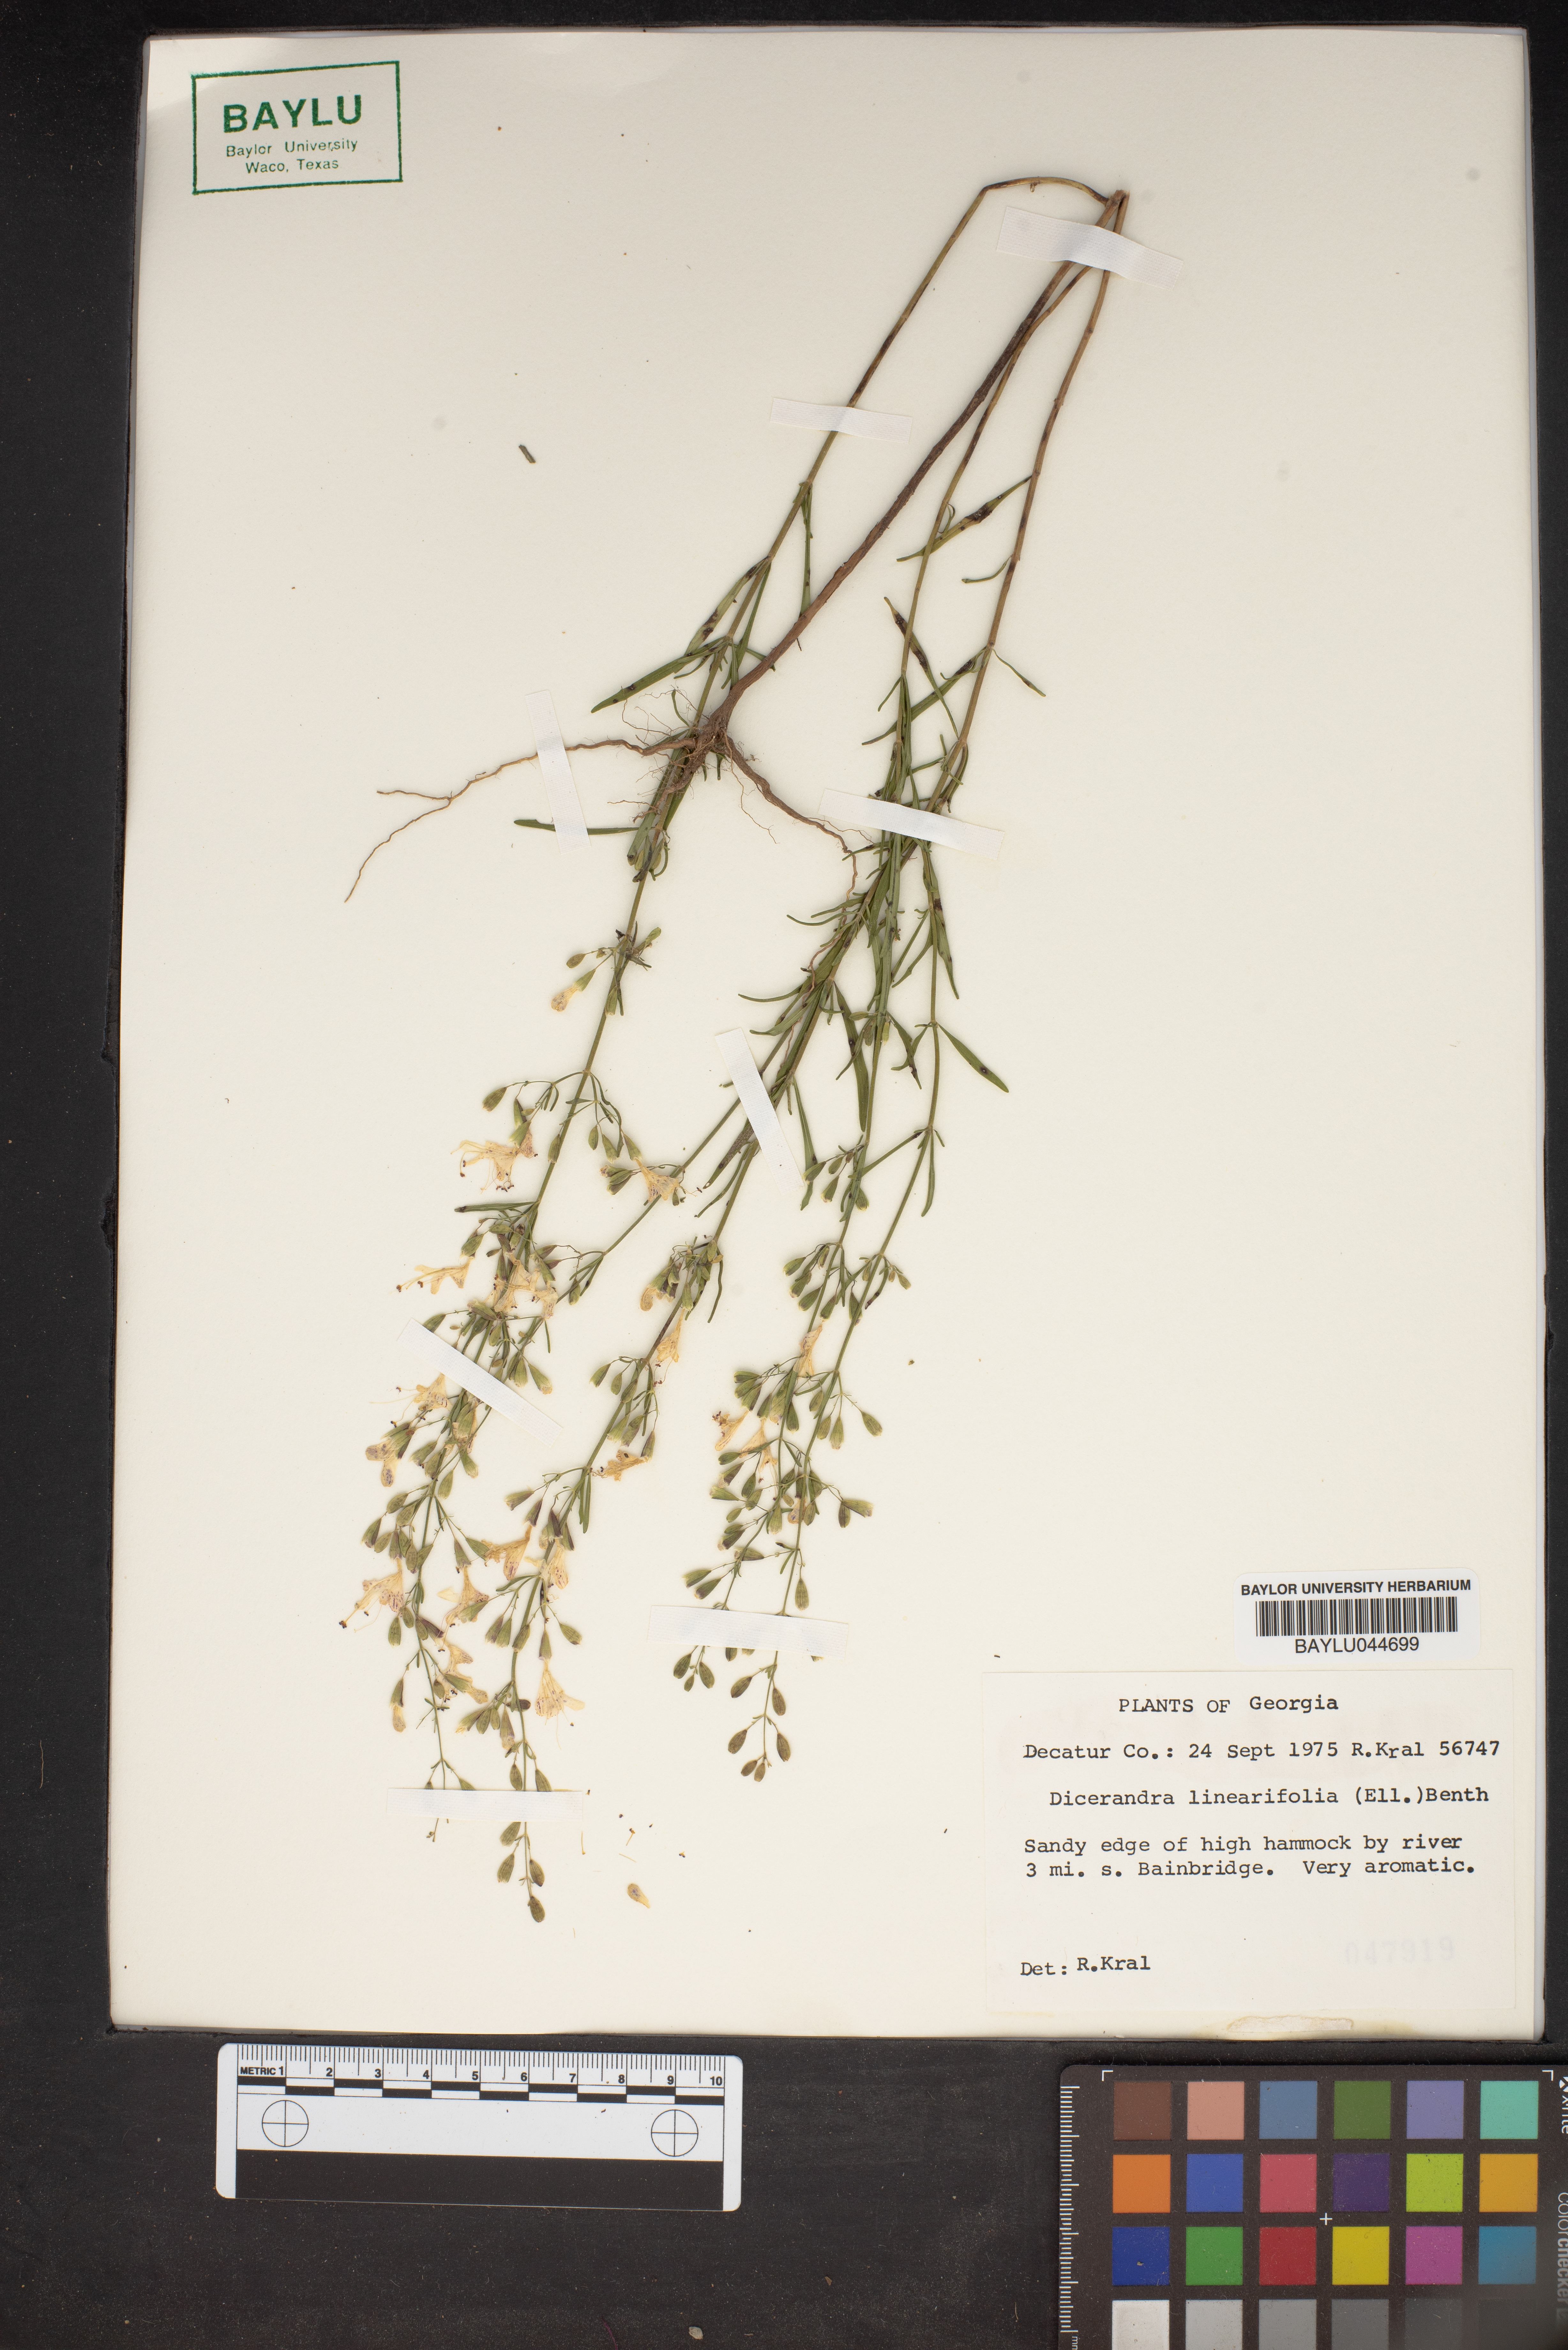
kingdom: Plantae
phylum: Tracheophyta
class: Magnoliopsida
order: Lamiales
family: Lamiaceae
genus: Dicerandra
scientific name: Dicerandra linearifolia
